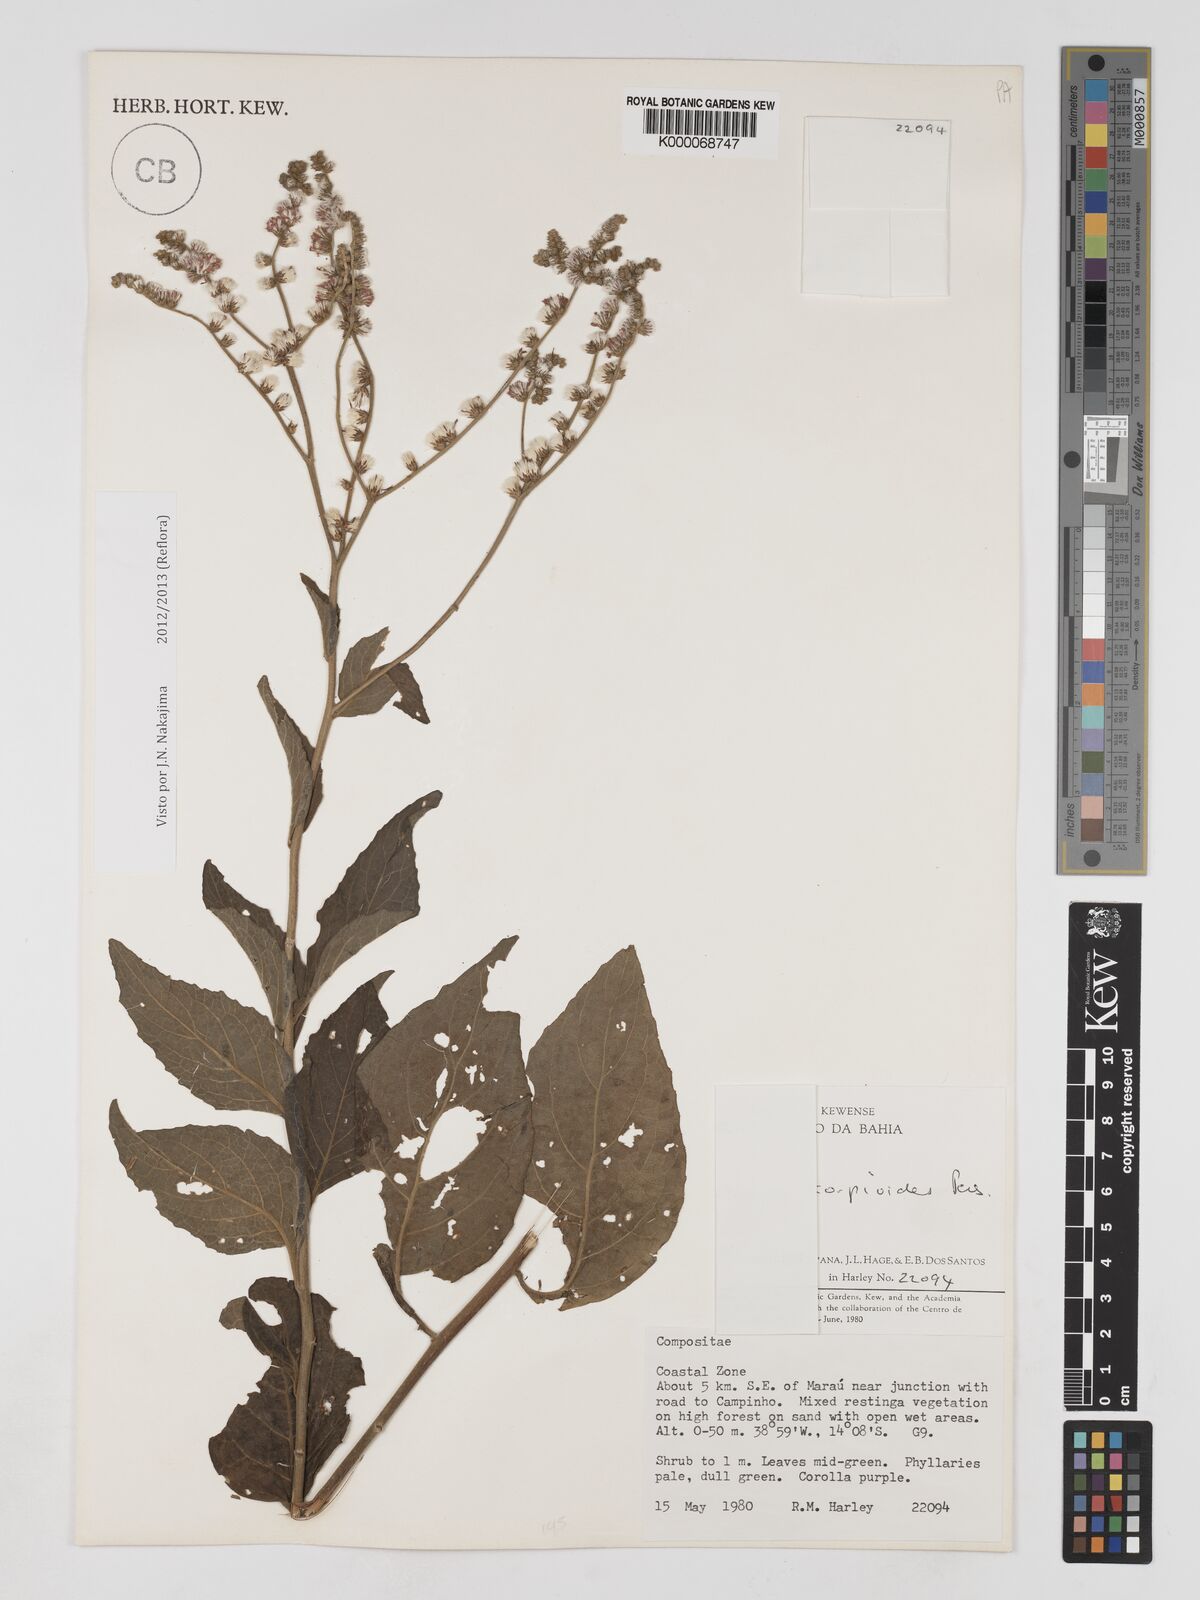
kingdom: Plantae
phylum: Tracheophyta
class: Magnoliopsida
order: Asterales
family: Asteraceae
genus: Cyrtocymura
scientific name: Cyrtocymura scorpioides
